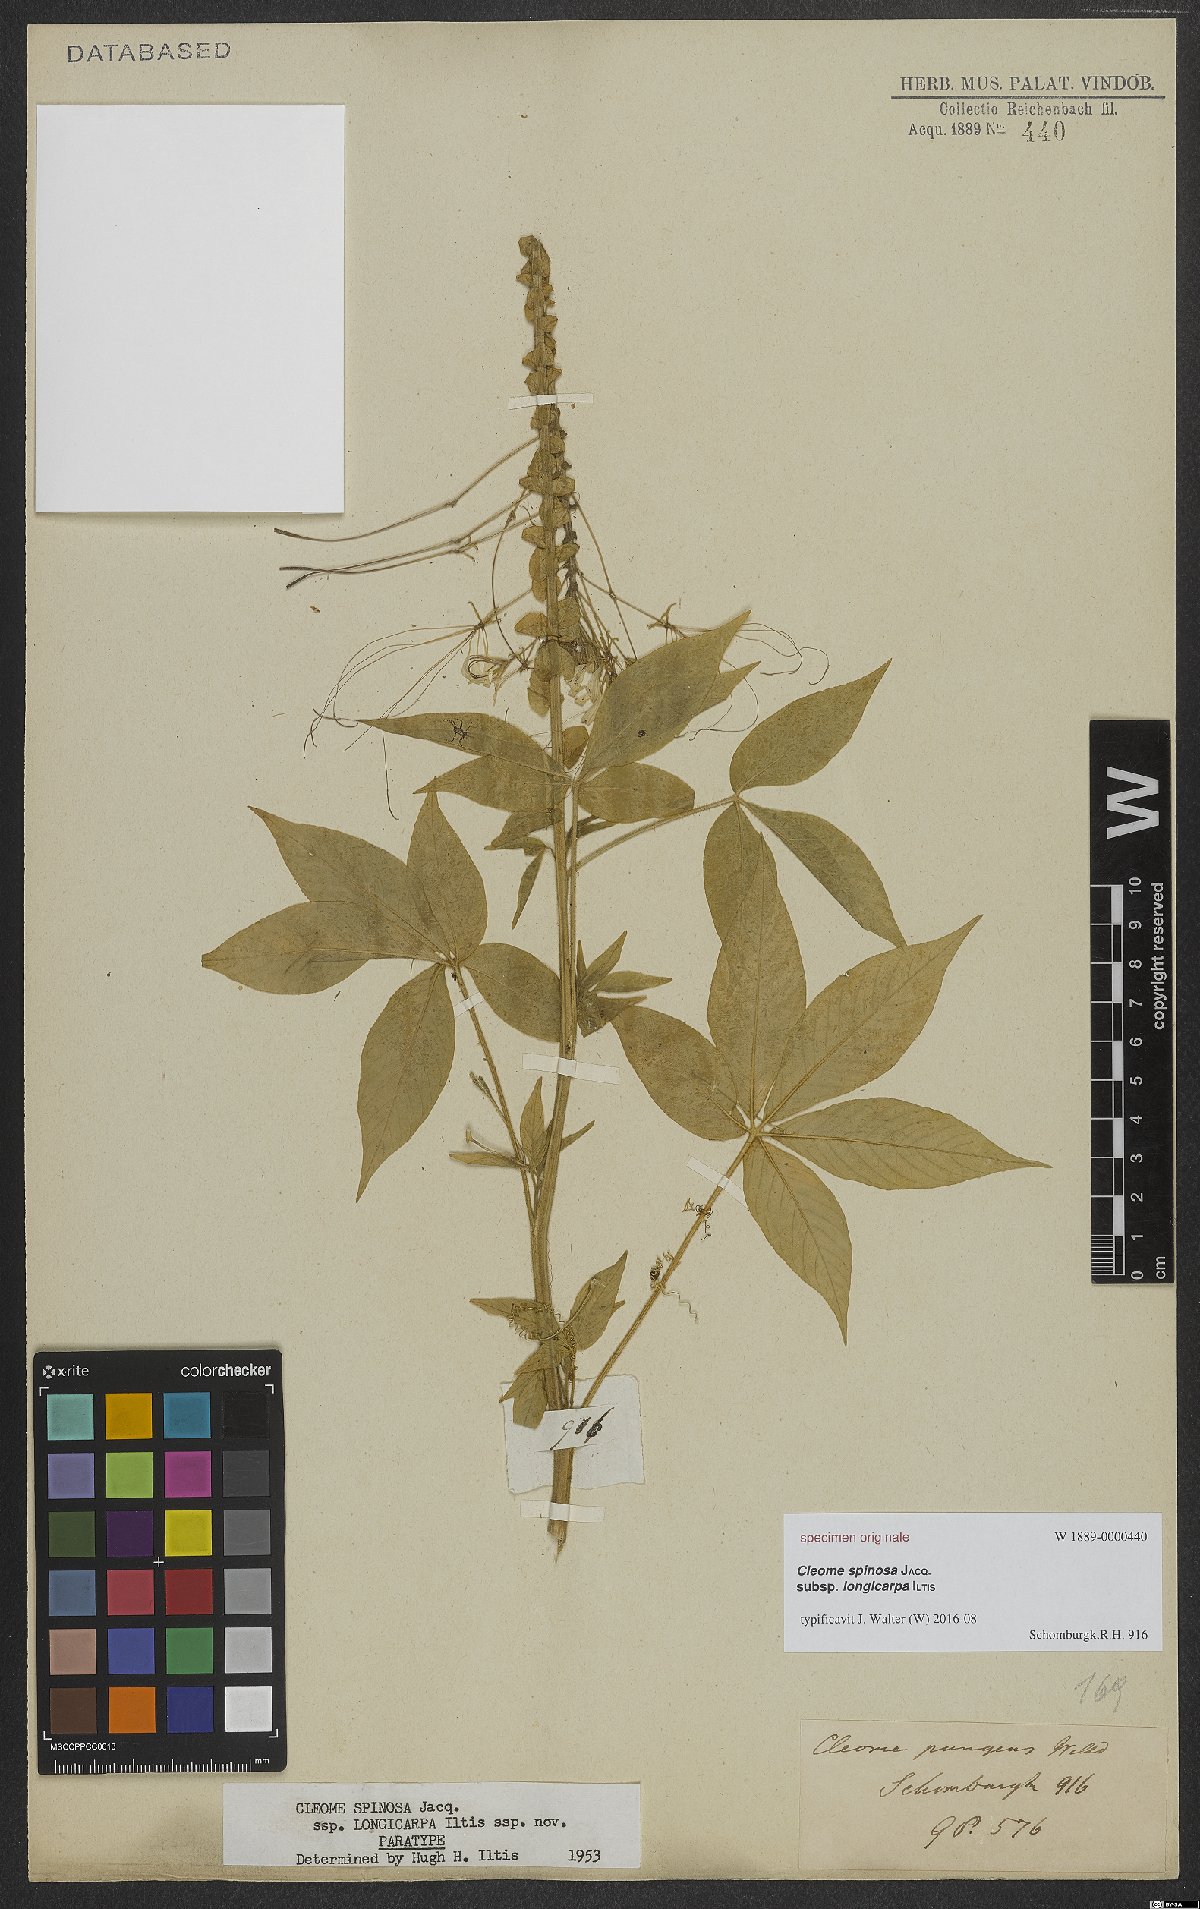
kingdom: Plantae
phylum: Tracheophyta
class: Magnoliopsida
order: Brassicales
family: Cleomaceae
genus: Tarenaya
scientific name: Tarenaya
